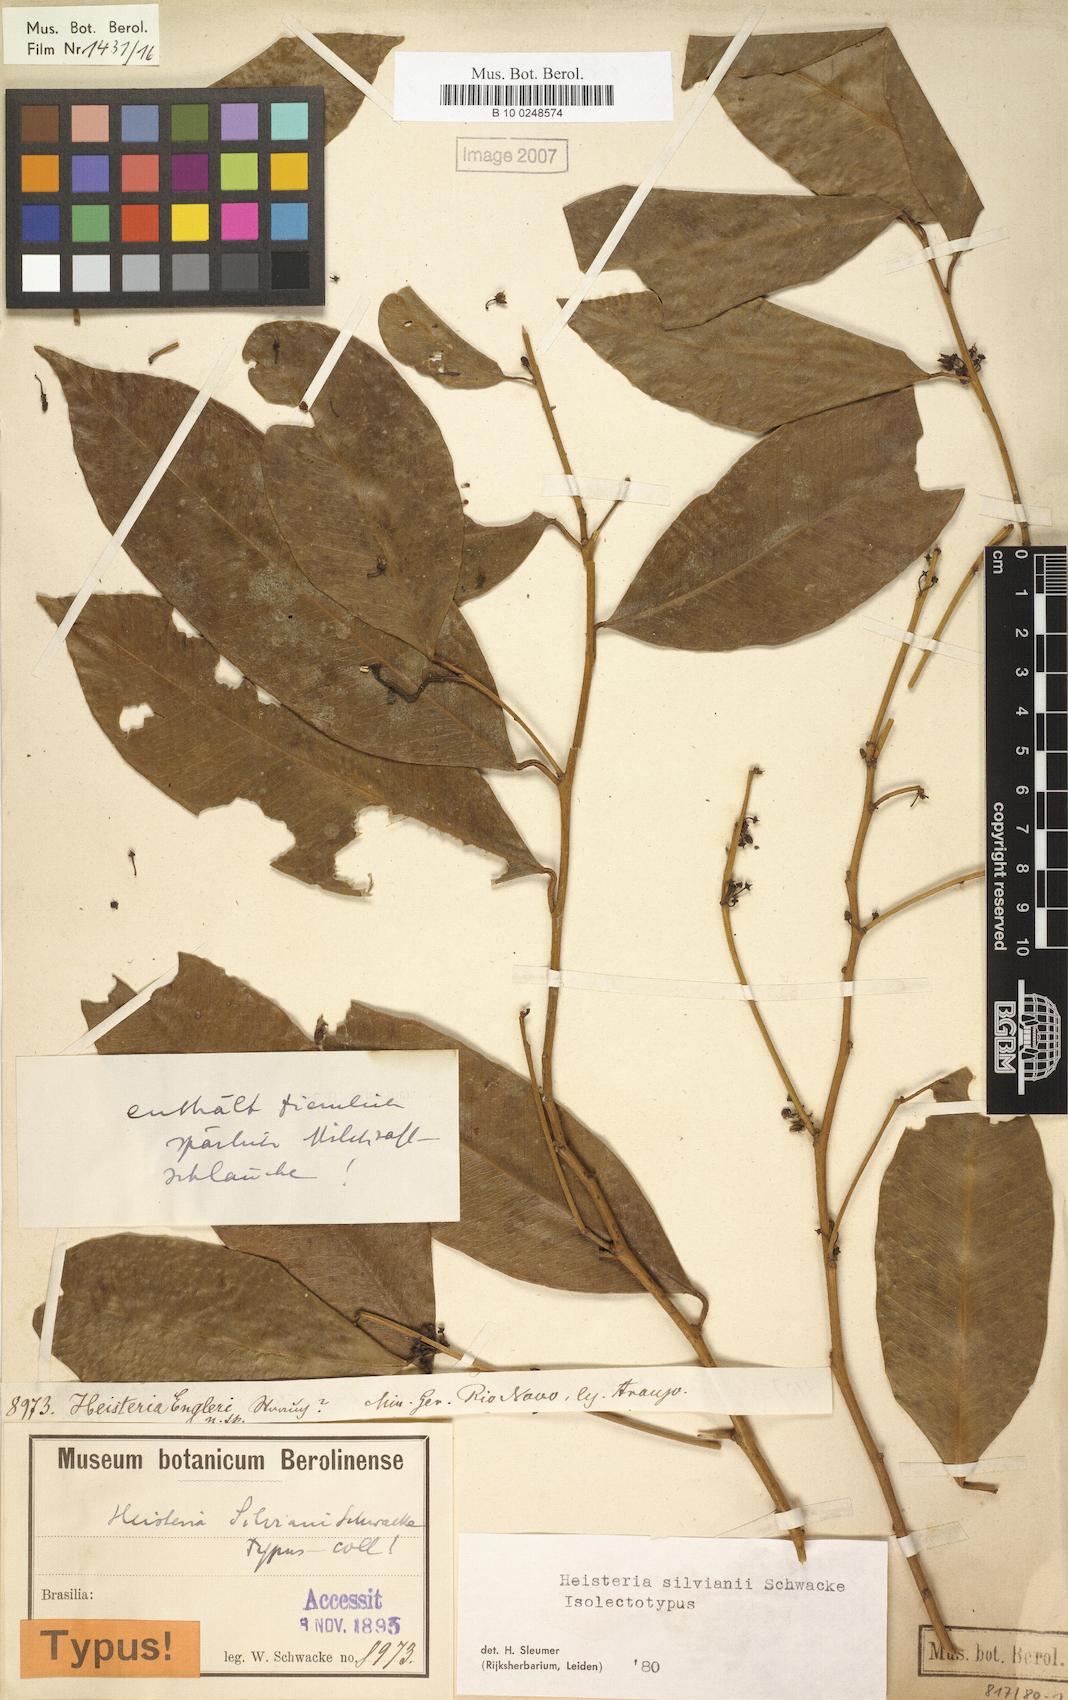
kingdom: Plantae
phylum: Tracheophyta
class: Magnoliopsida
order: Santalales
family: Erythropalaceae
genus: Heisteria
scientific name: Heisteria silvianii
